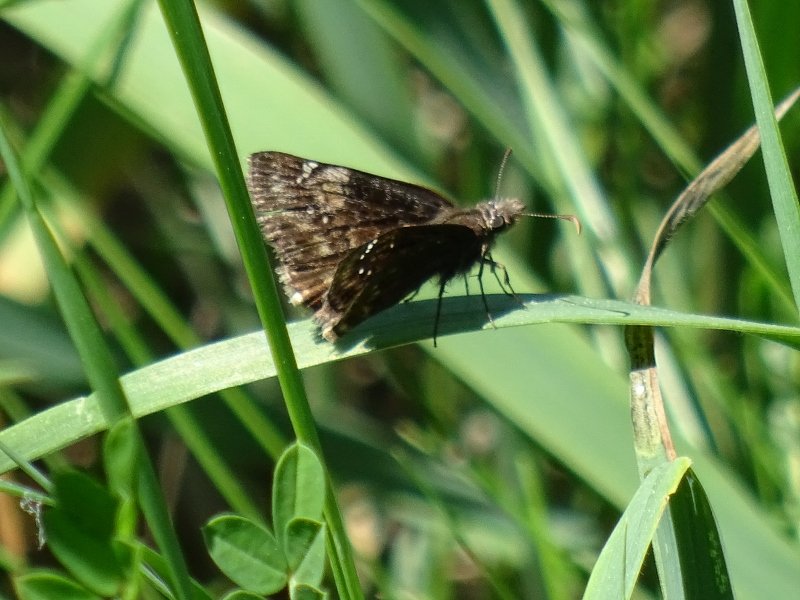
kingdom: Animalia
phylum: Arthropoda
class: Insecta
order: Lepidoptera
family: Hesperiidae
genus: Gesta
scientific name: Gesta
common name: Wild Indigo Duskywing
